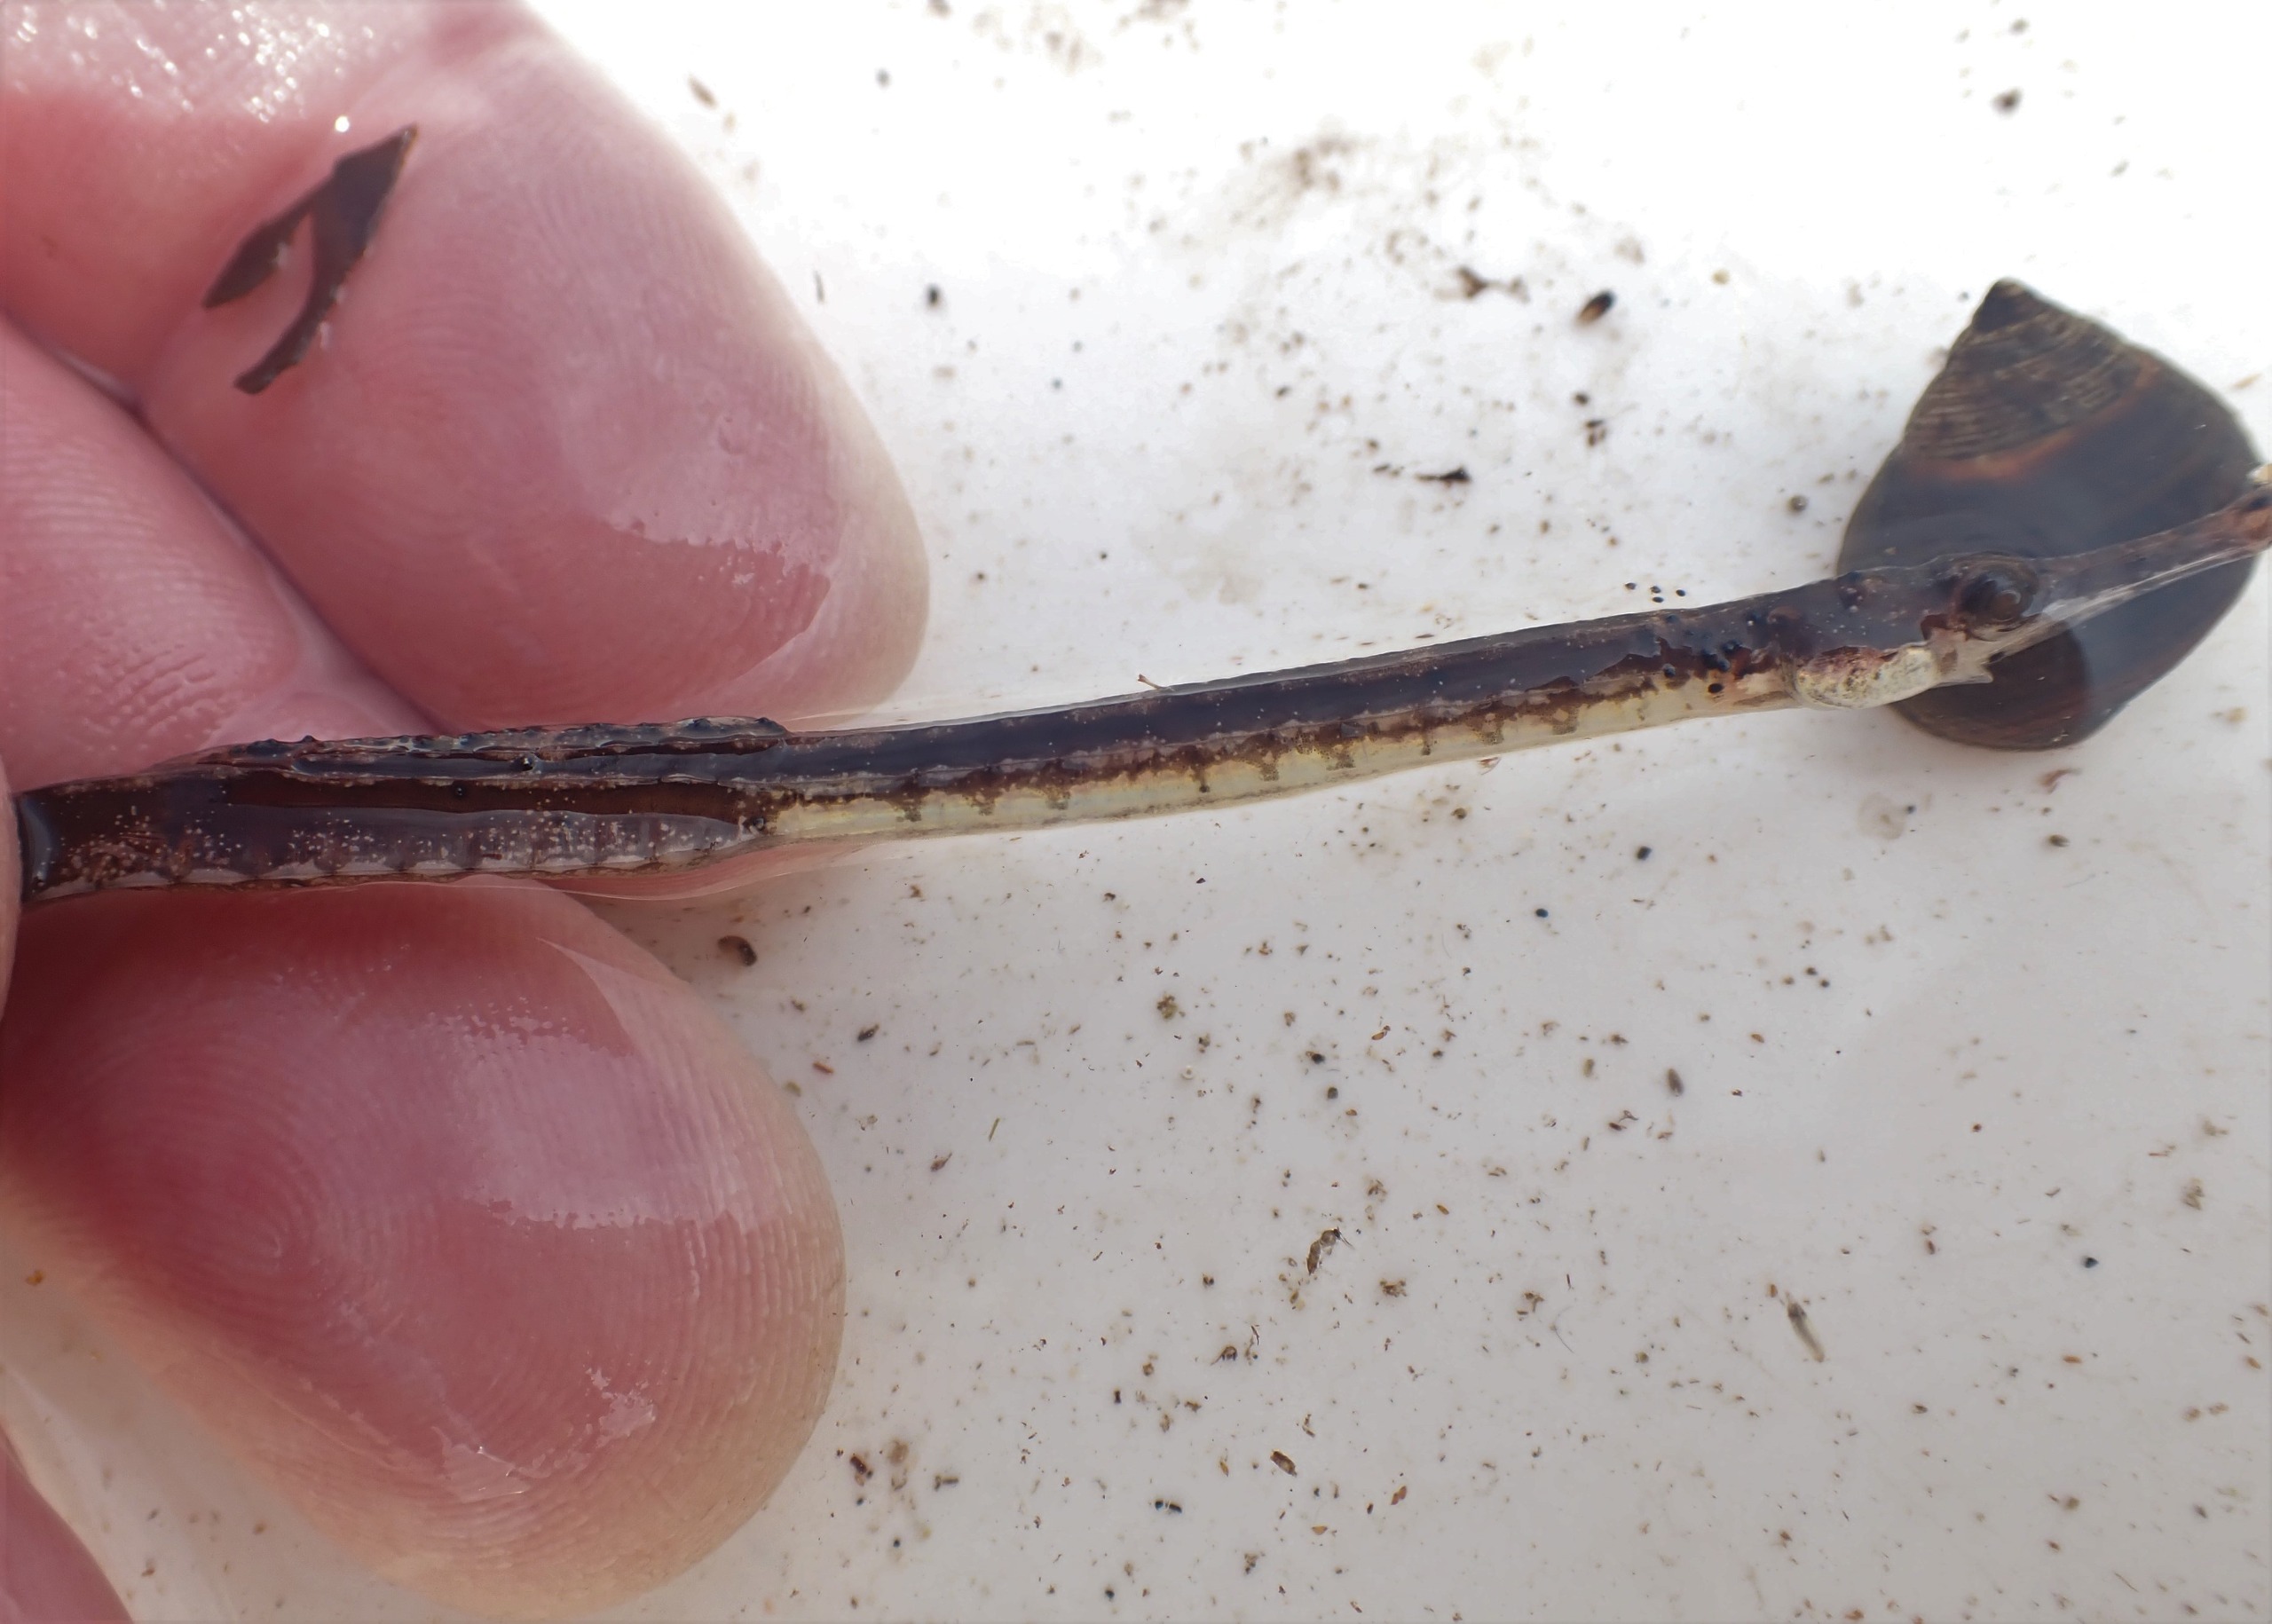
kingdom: Animalia
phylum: Chordata
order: Syngnathiformes
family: Syngnathidae
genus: Syngnathus
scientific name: Syngnathus rostellatus
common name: Lille tangnål
